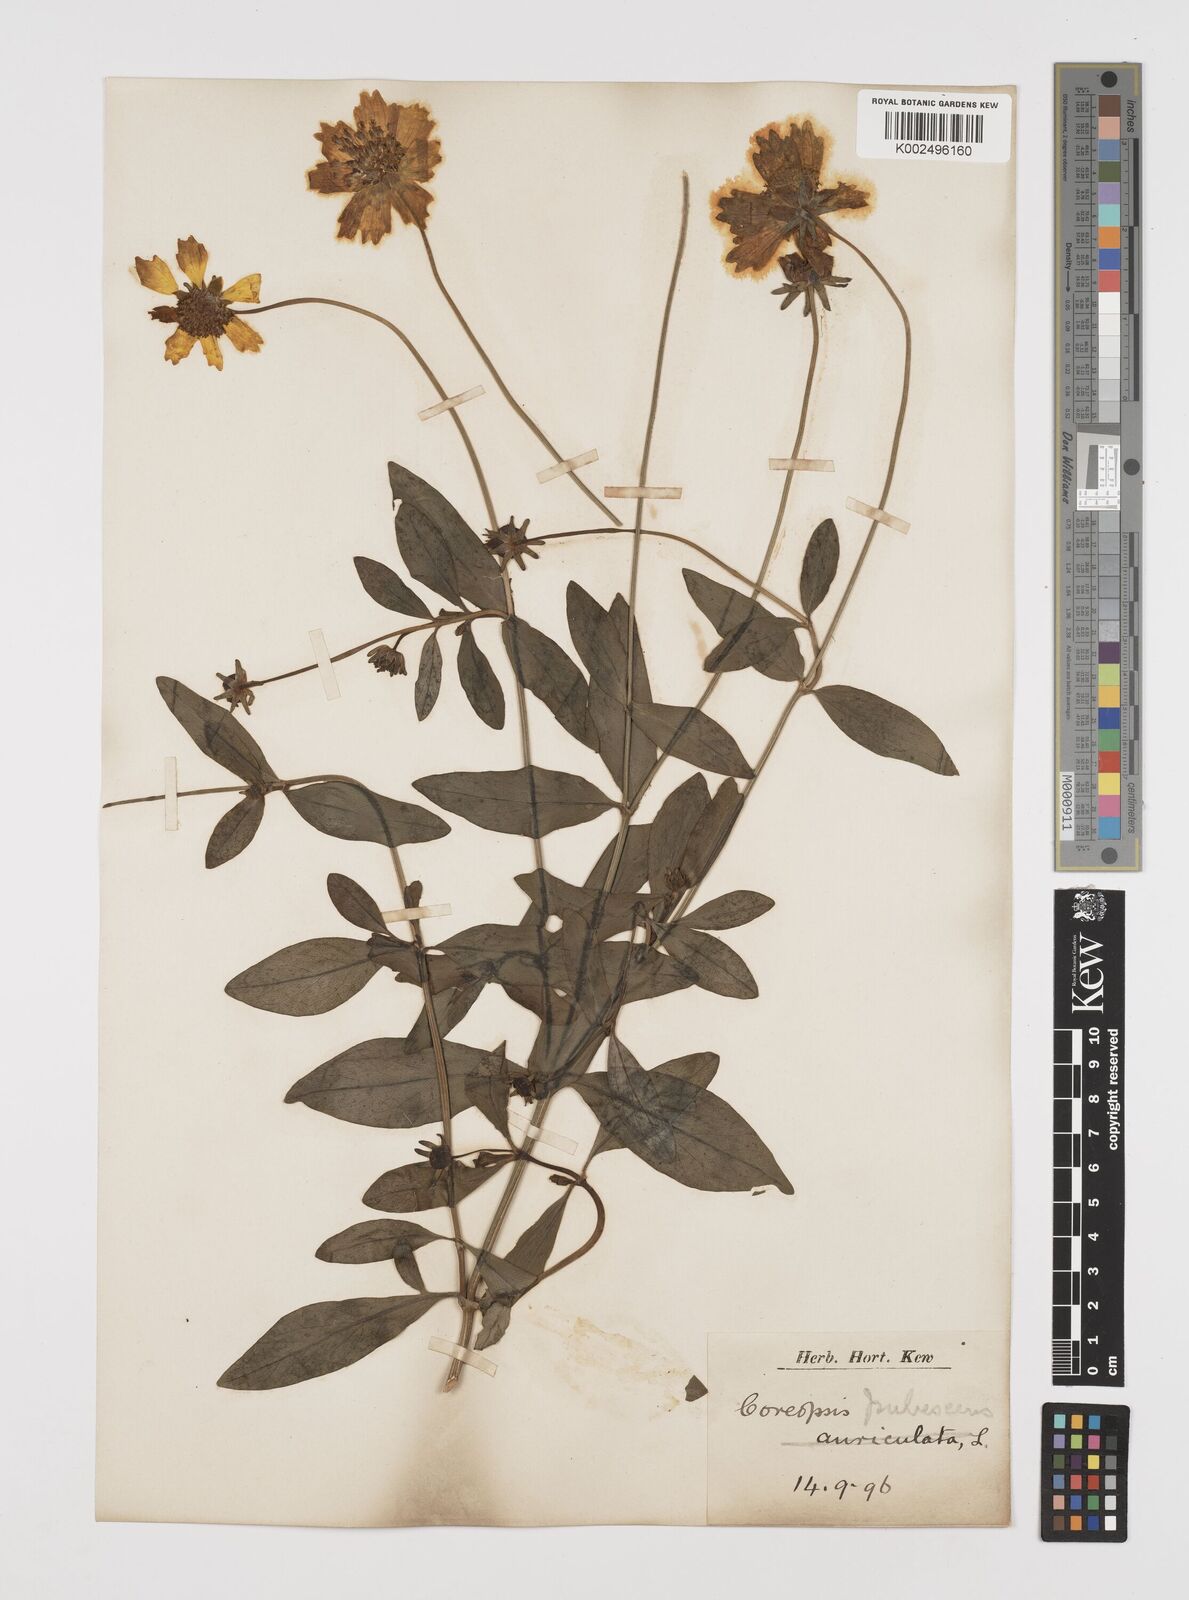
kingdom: Plantae
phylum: Tracheophyta
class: Magnoliopsida
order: Asterales
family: Asteraceae
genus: Coreopsis
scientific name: Coreopsis pubescens
